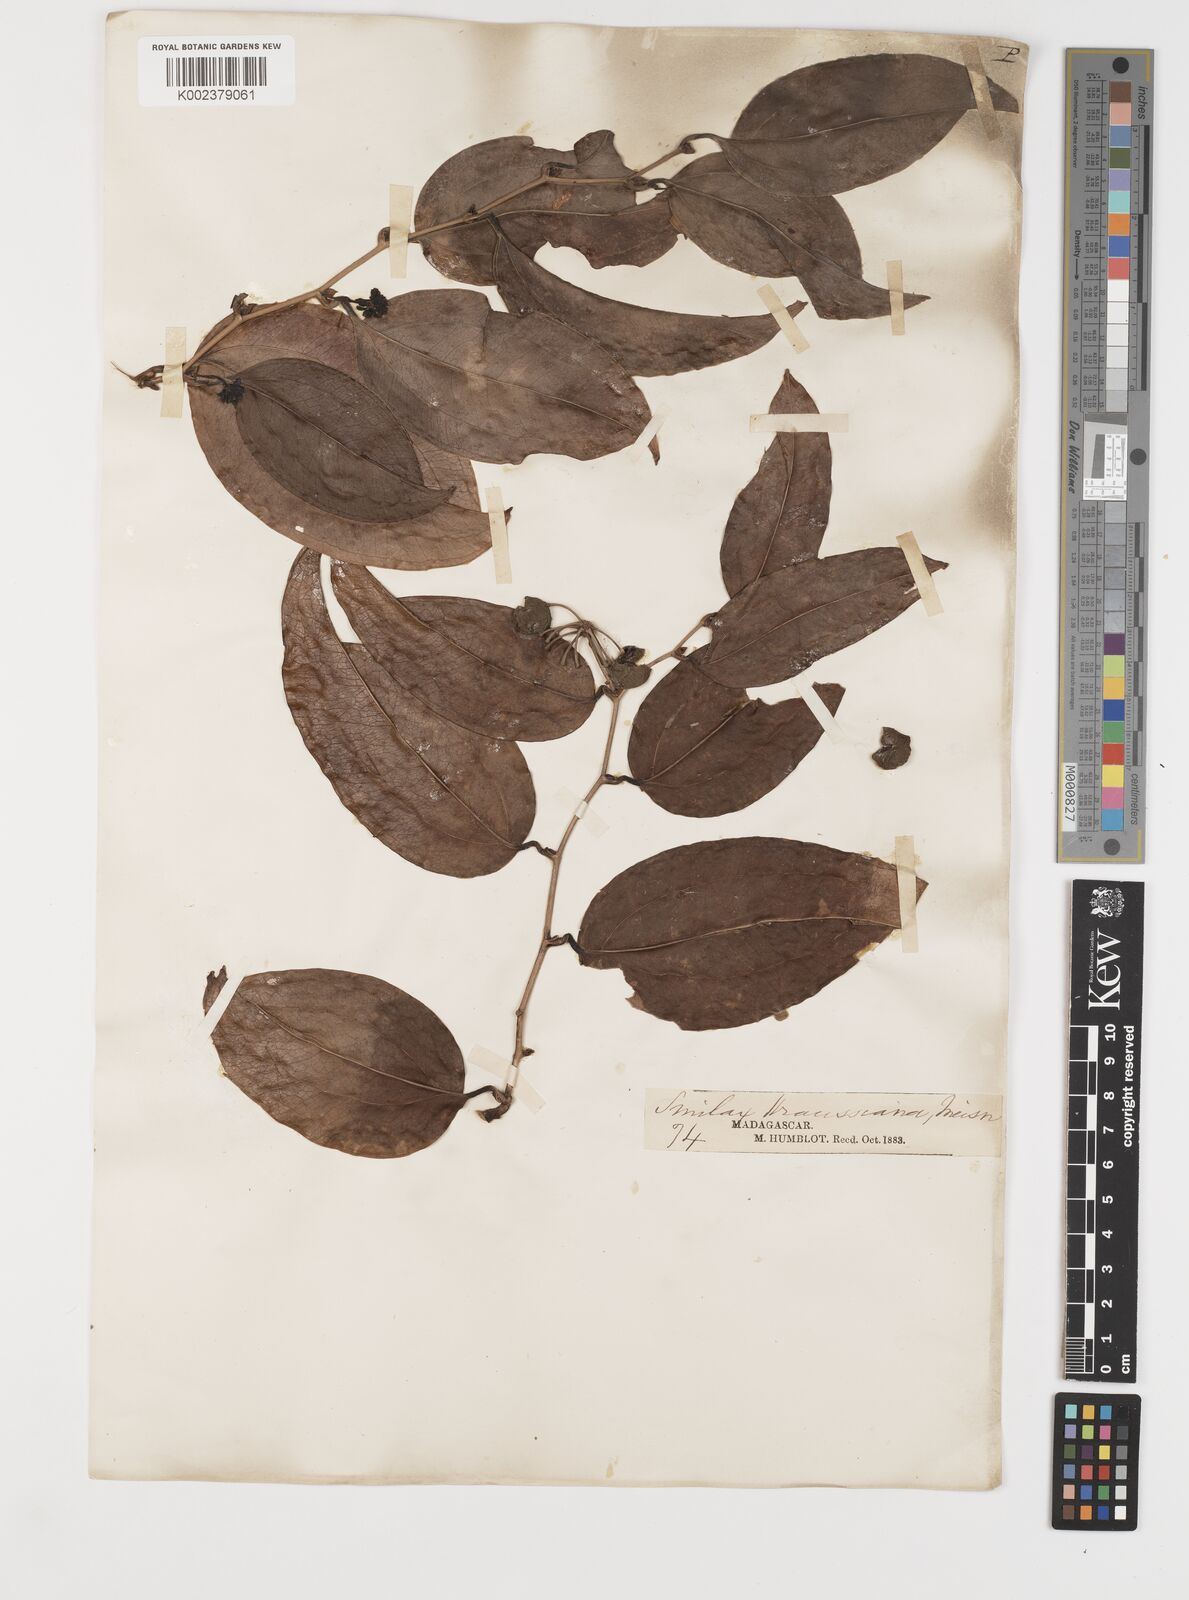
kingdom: Plantae
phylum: Tracheophyta
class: Liliopsida
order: Liliales
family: Smilacaceae
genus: Smilax
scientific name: Smilax anceps
